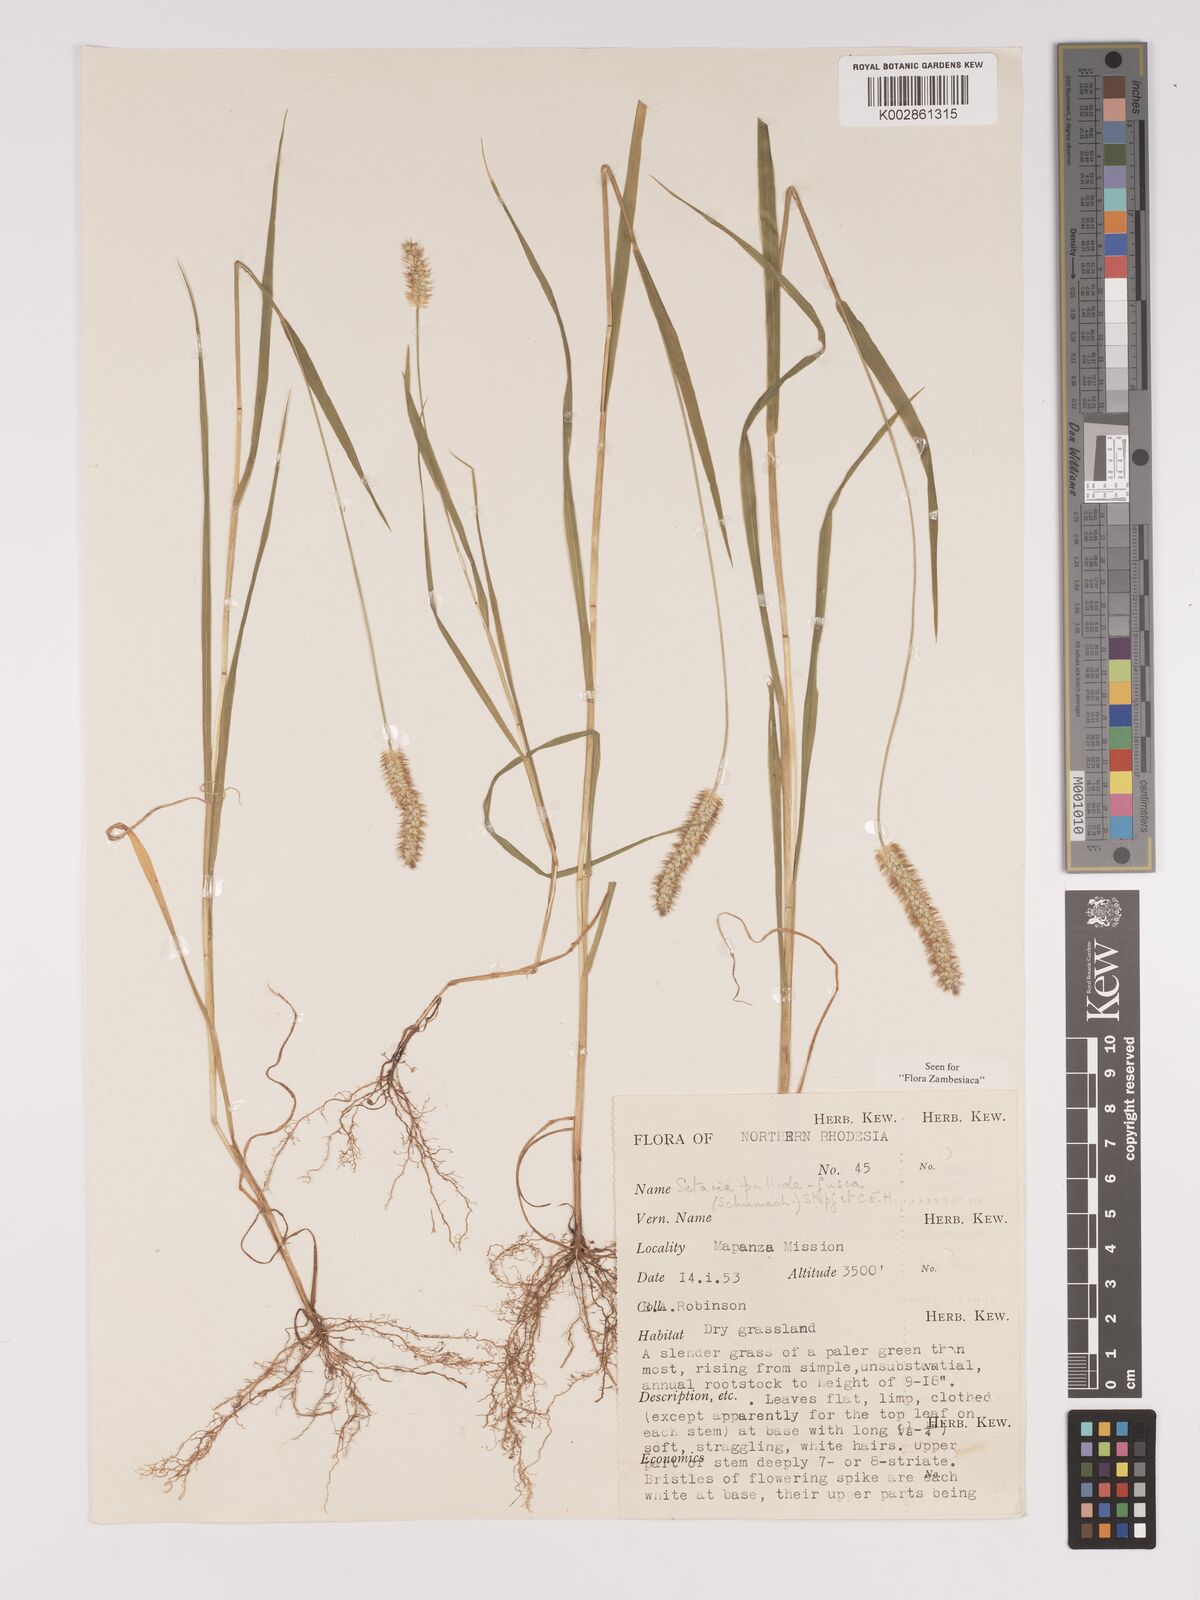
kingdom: Plantae
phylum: Tracheophyta
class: Liliopsida
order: Poales
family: Poaceae
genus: Setaria
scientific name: Setaria pumila
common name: Yellow bristle-grass
